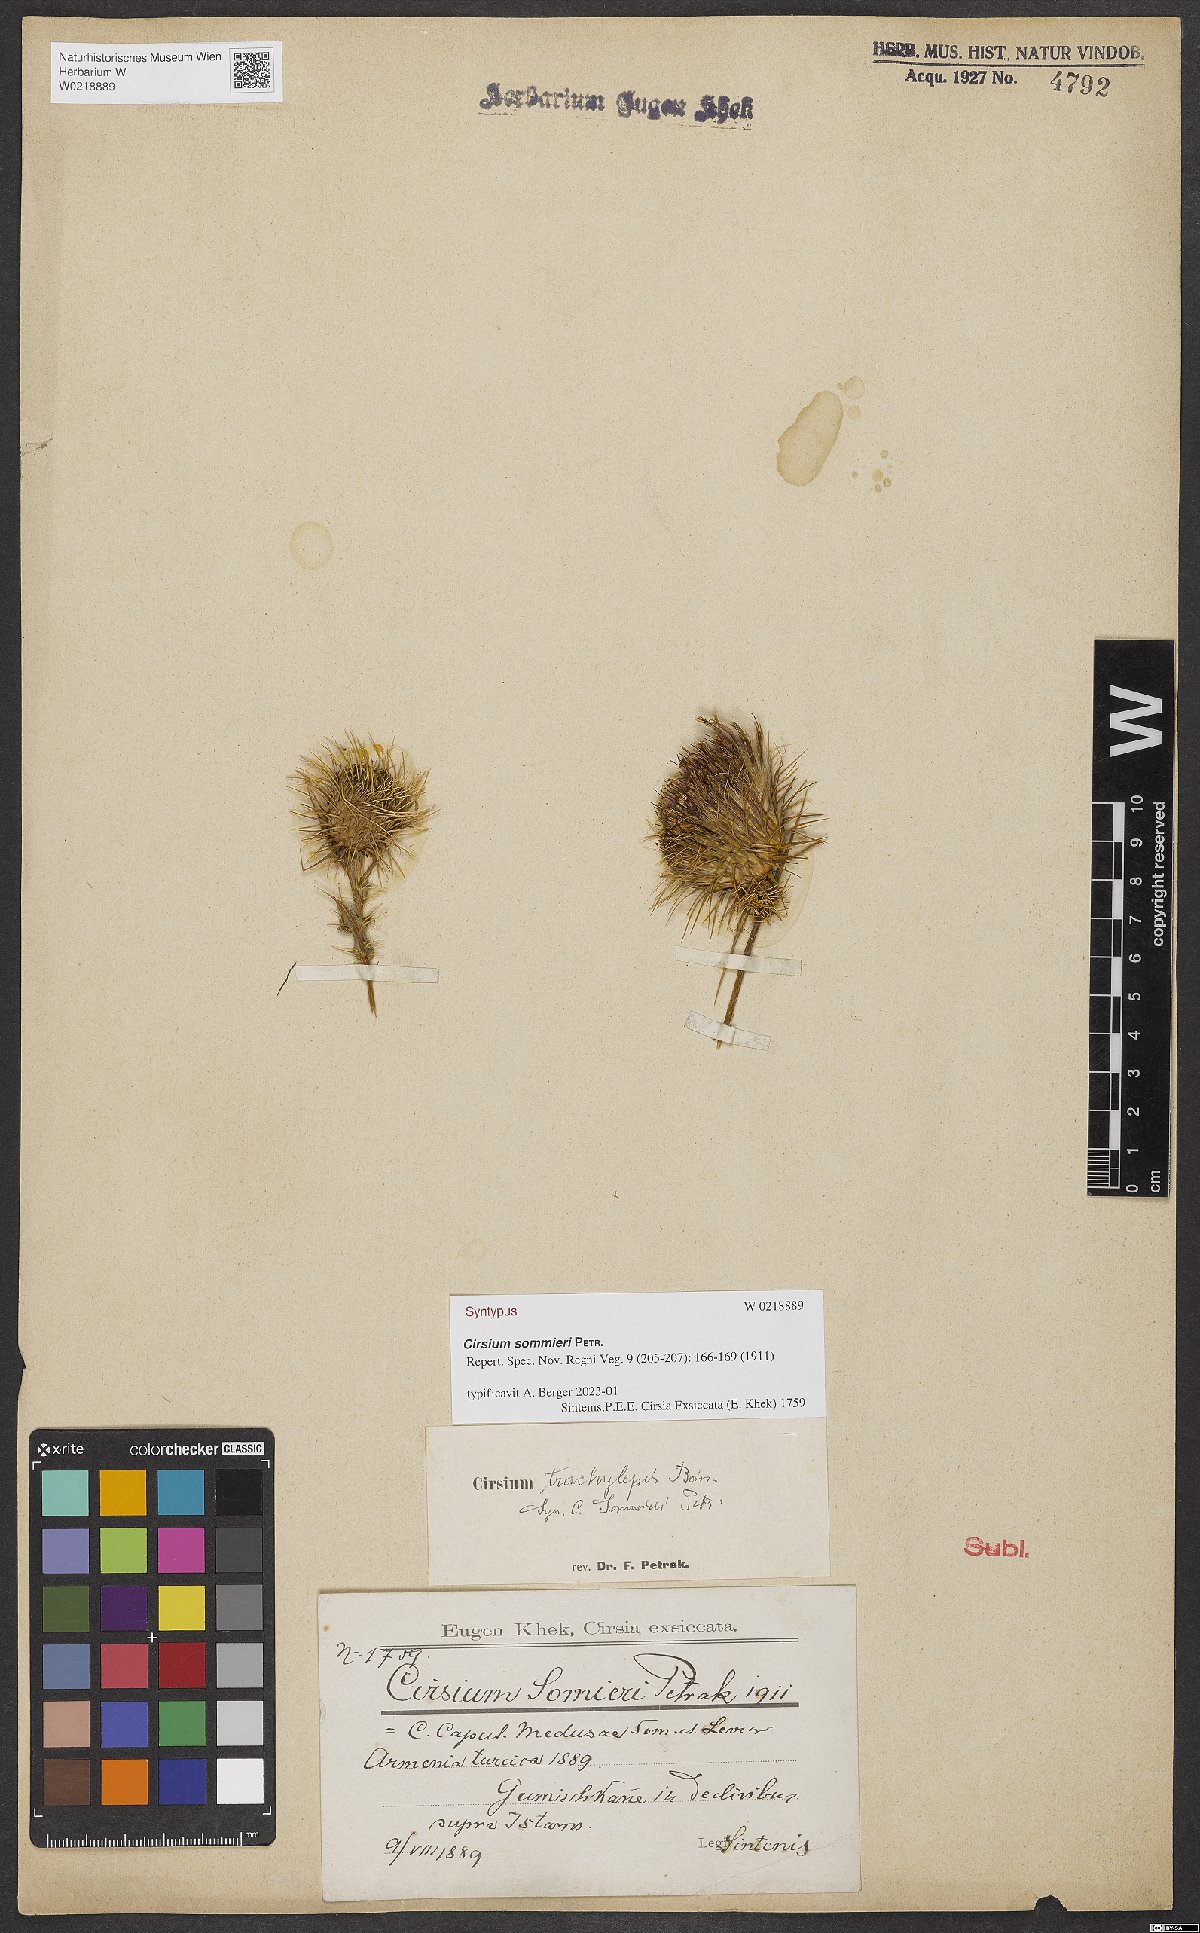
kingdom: Plantae
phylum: Tracheophyta
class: Magnoliopsida
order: Asterales
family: Asteraceae
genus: Lophiolepis
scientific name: Lophiolepis sommieri
